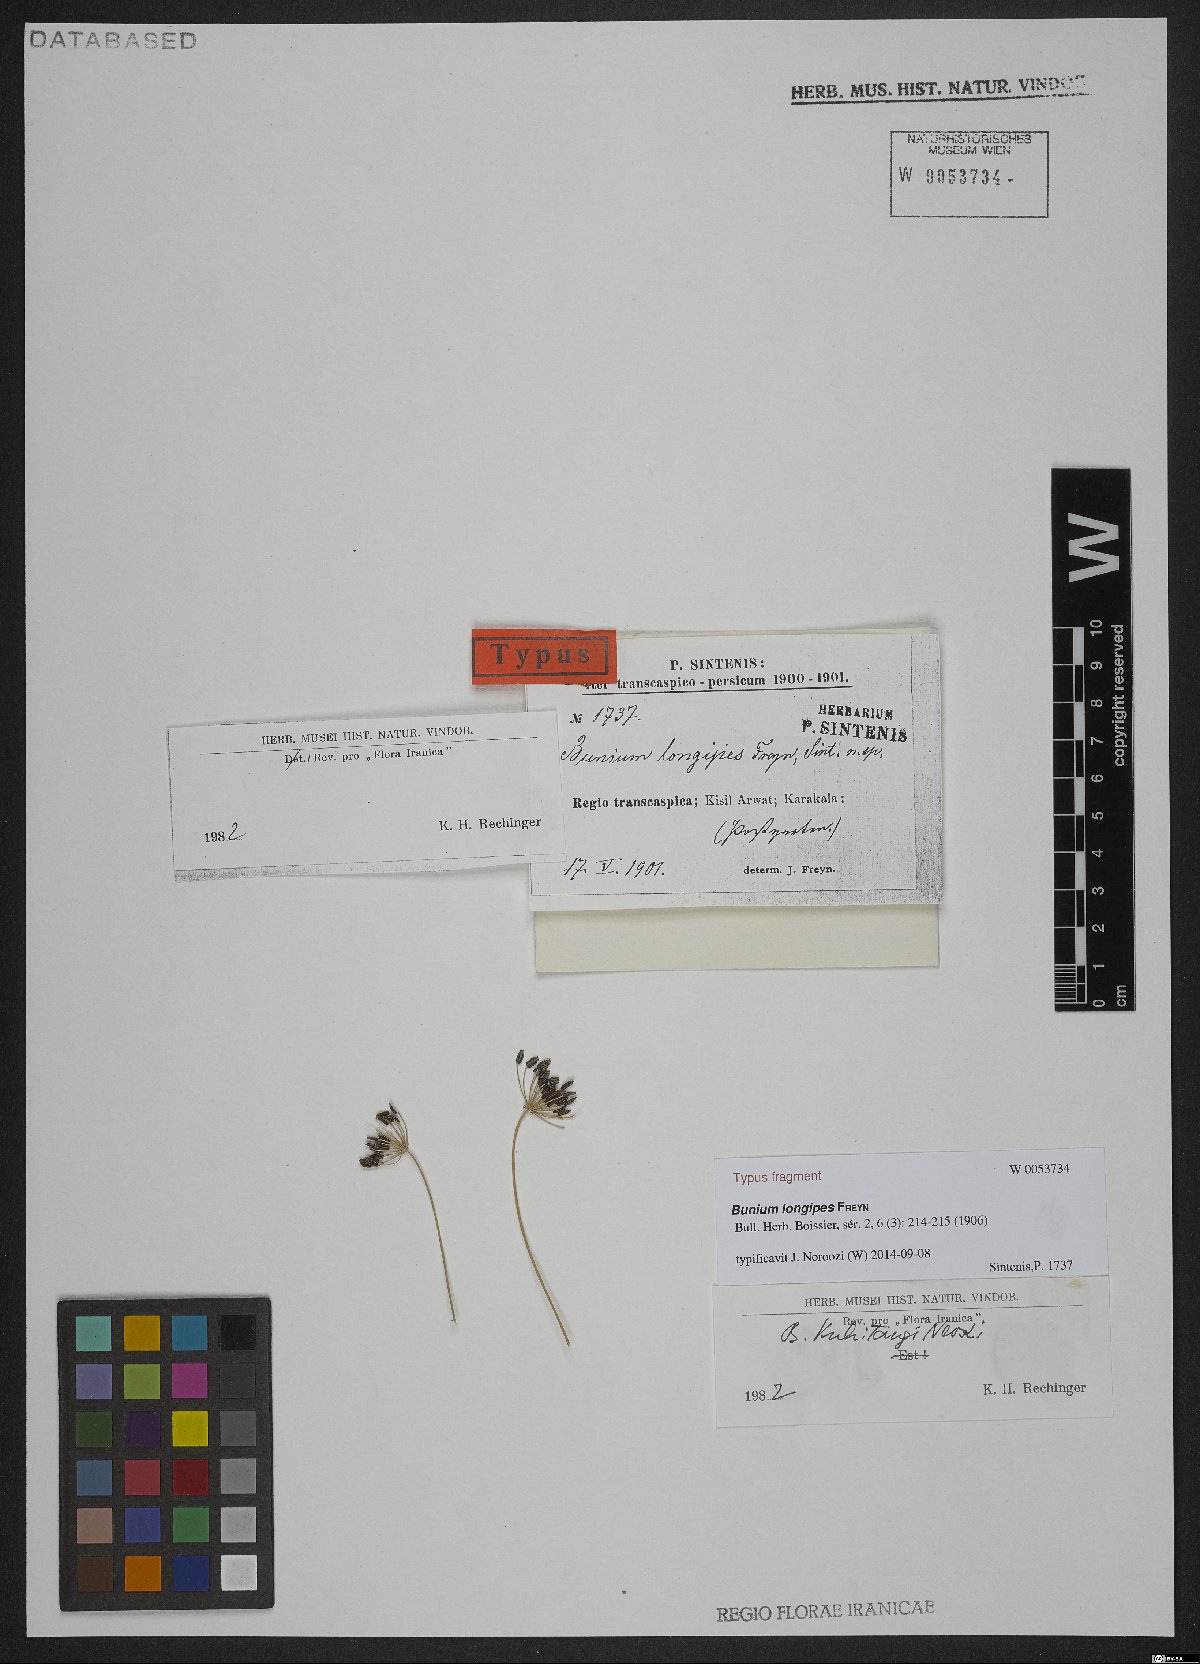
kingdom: Plantae
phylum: Tracheophyta
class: Magnoliopsida
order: Apiales
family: Apiaceae
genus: Elwendia
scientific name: Elwendia longipes
